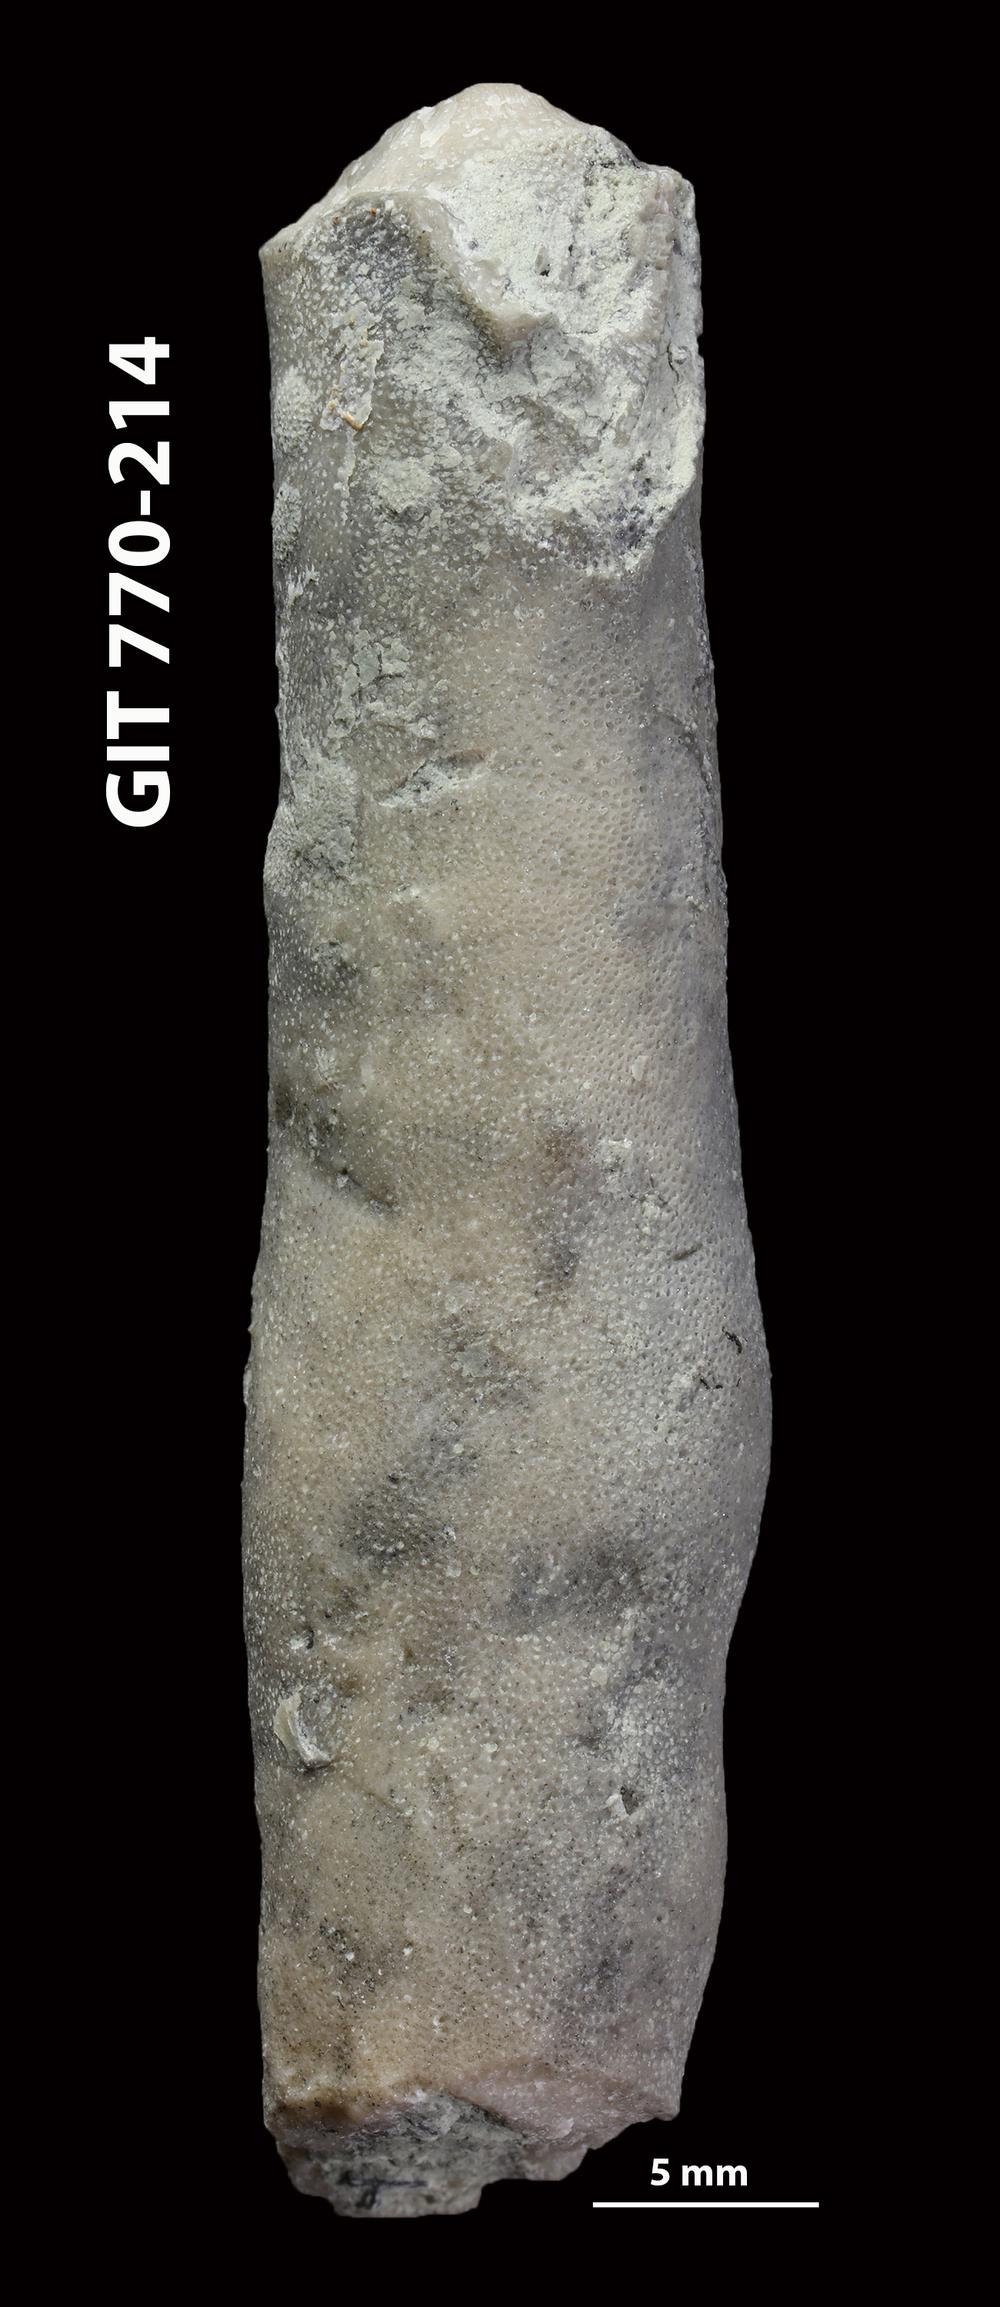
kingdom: Animalia
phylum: Bryozoa
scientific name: Bryozoa
